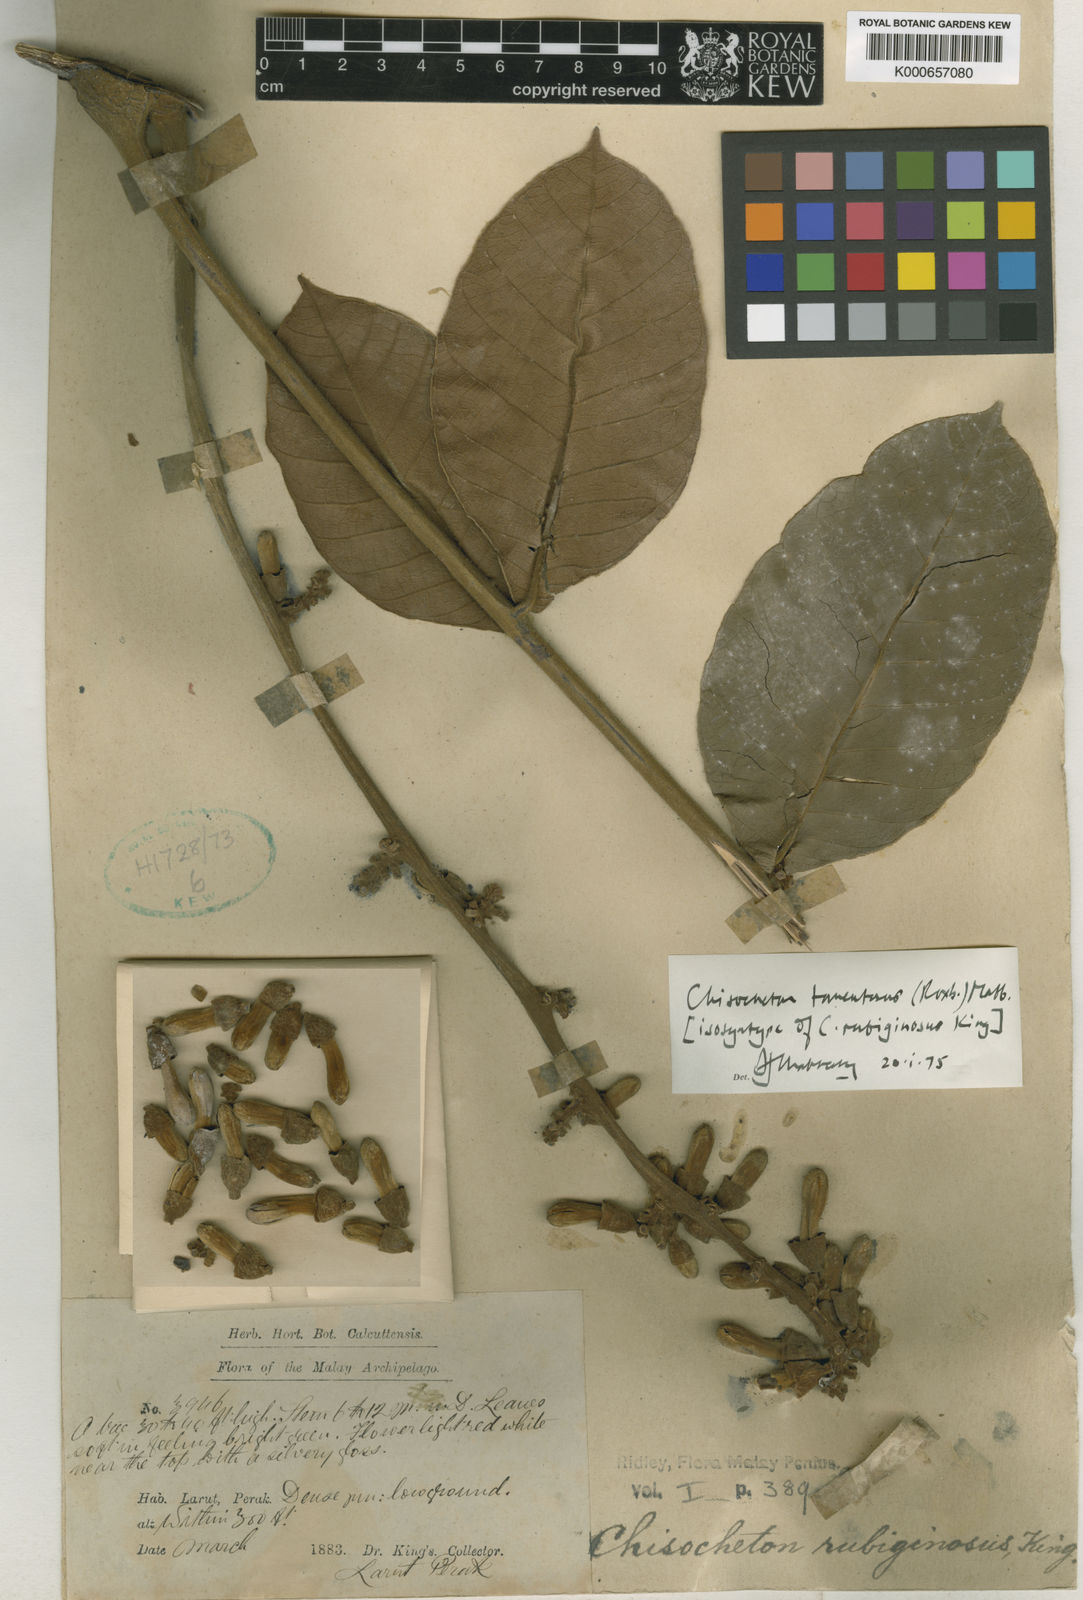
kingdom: Plantae
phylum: Tracheophyta
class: Magnoliopsida
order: Sapindales
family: Meliaceae
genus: Chisocheton
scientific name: Chisocheton tomentosus
